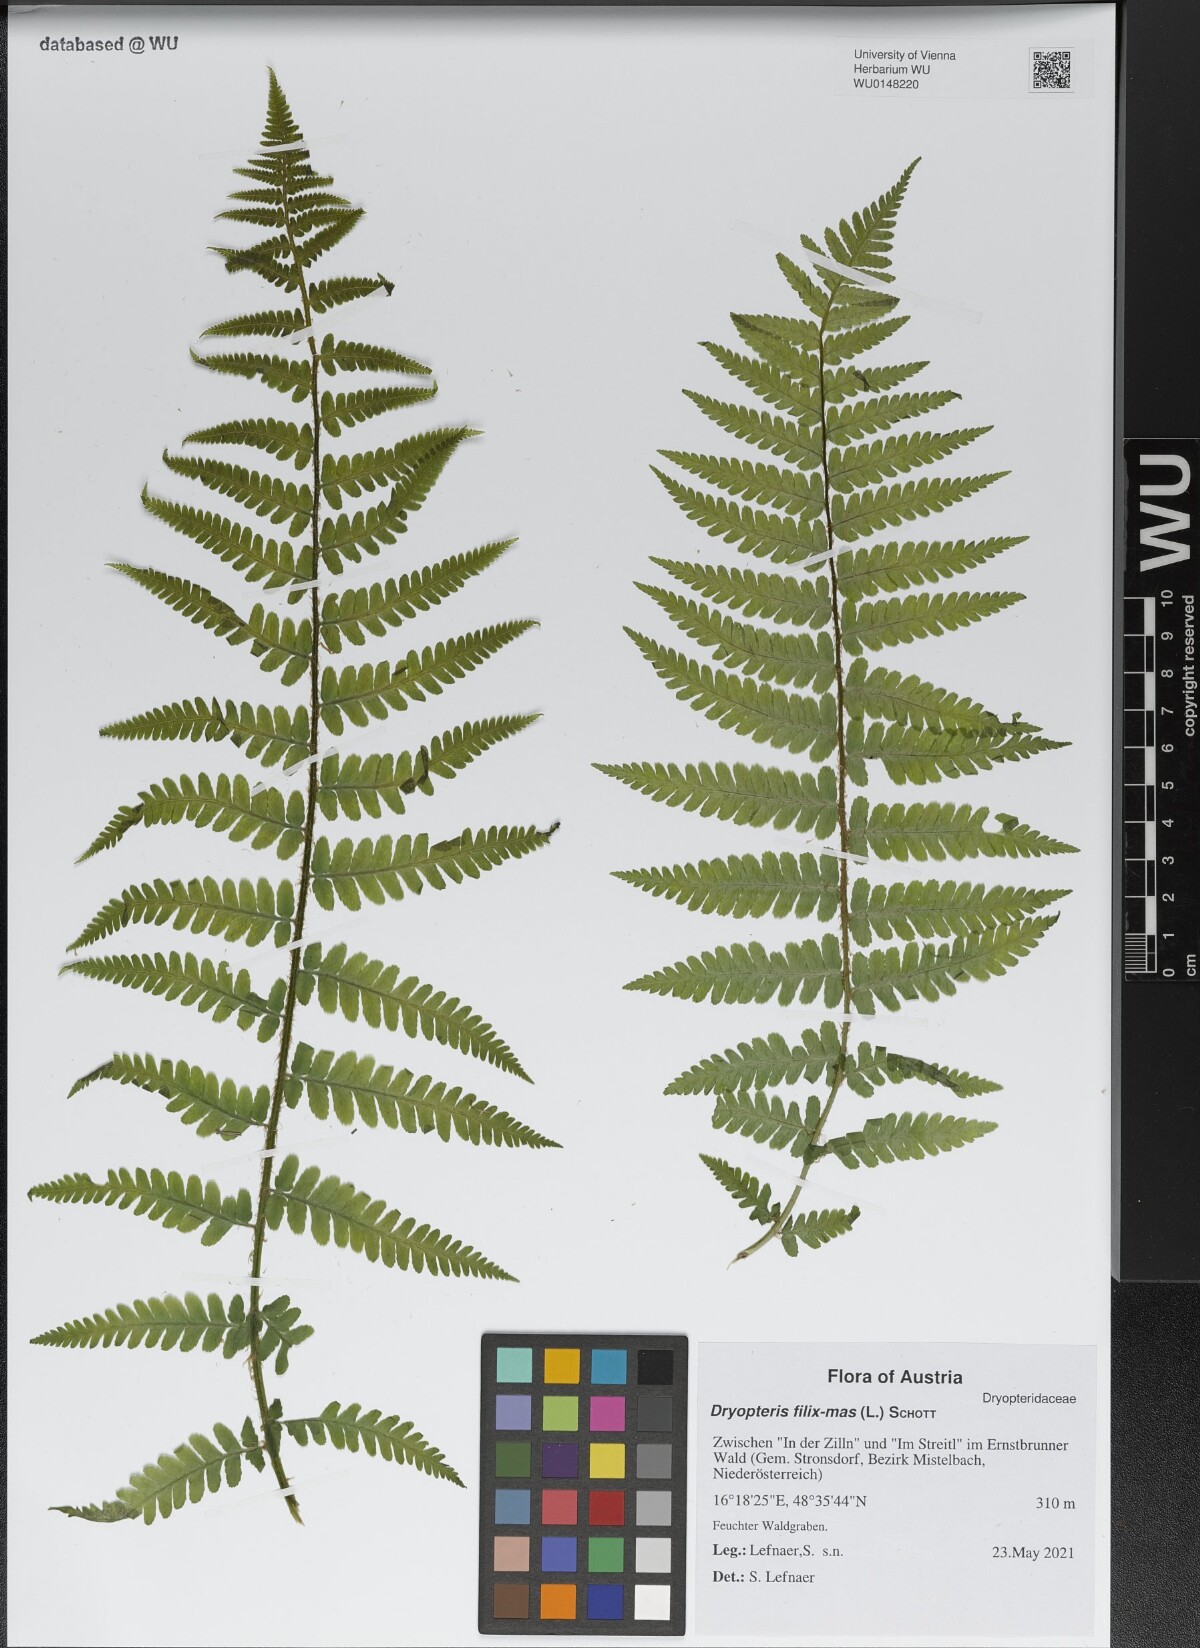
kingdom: Plantae
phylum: Tracheophyta
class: Polypodiopsida
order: Polypodiales
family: Dryopteridaceae
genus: Dryopteris
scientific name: Dryopteris filix-mas
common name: Male fern
